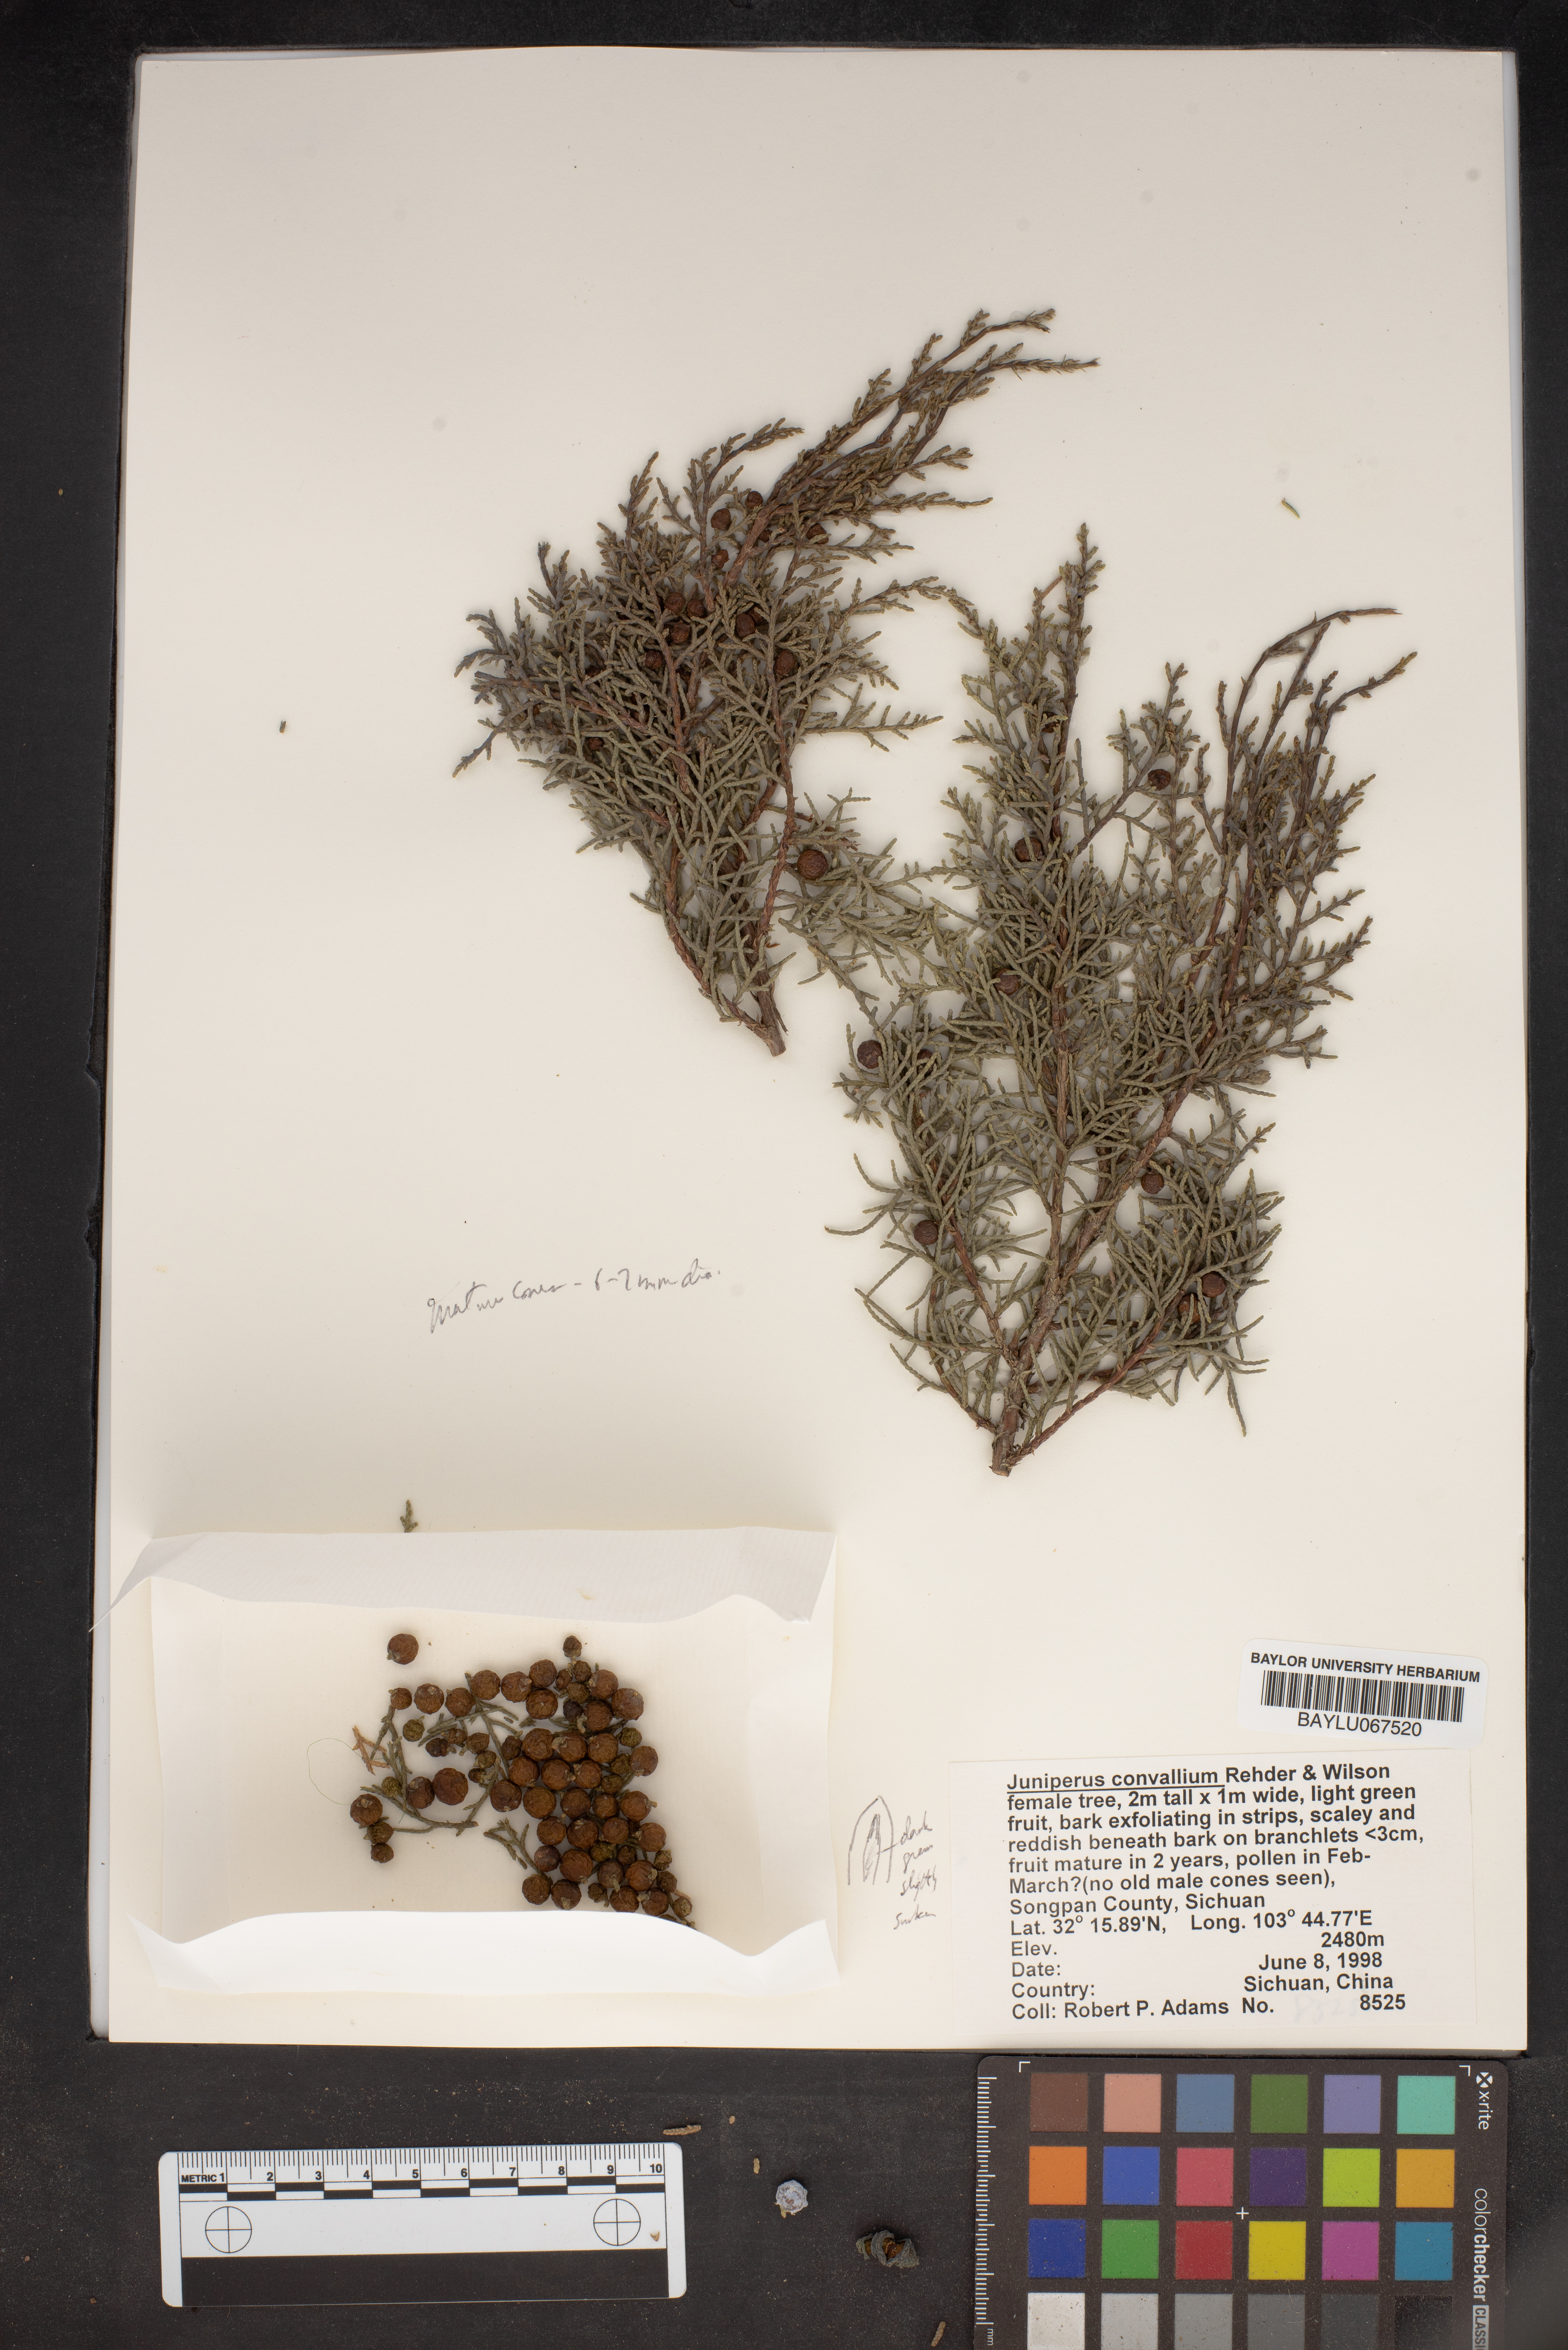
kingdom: Plantae
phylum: Tracheophyta
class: Pinopsida
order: Pinales
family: Cupressaceae
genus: Juniperus
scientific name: Juniperus convallium
